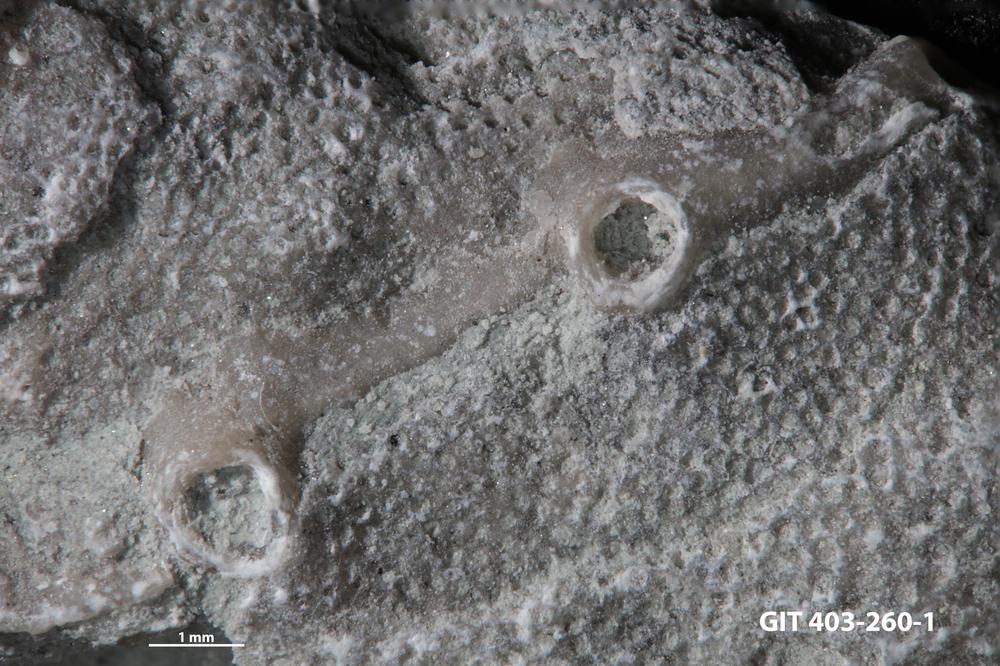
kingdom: Animalia
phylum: Cnidaria
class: Anthozoa
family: Auloporidae
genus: Aulopora
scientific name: Aulopora
